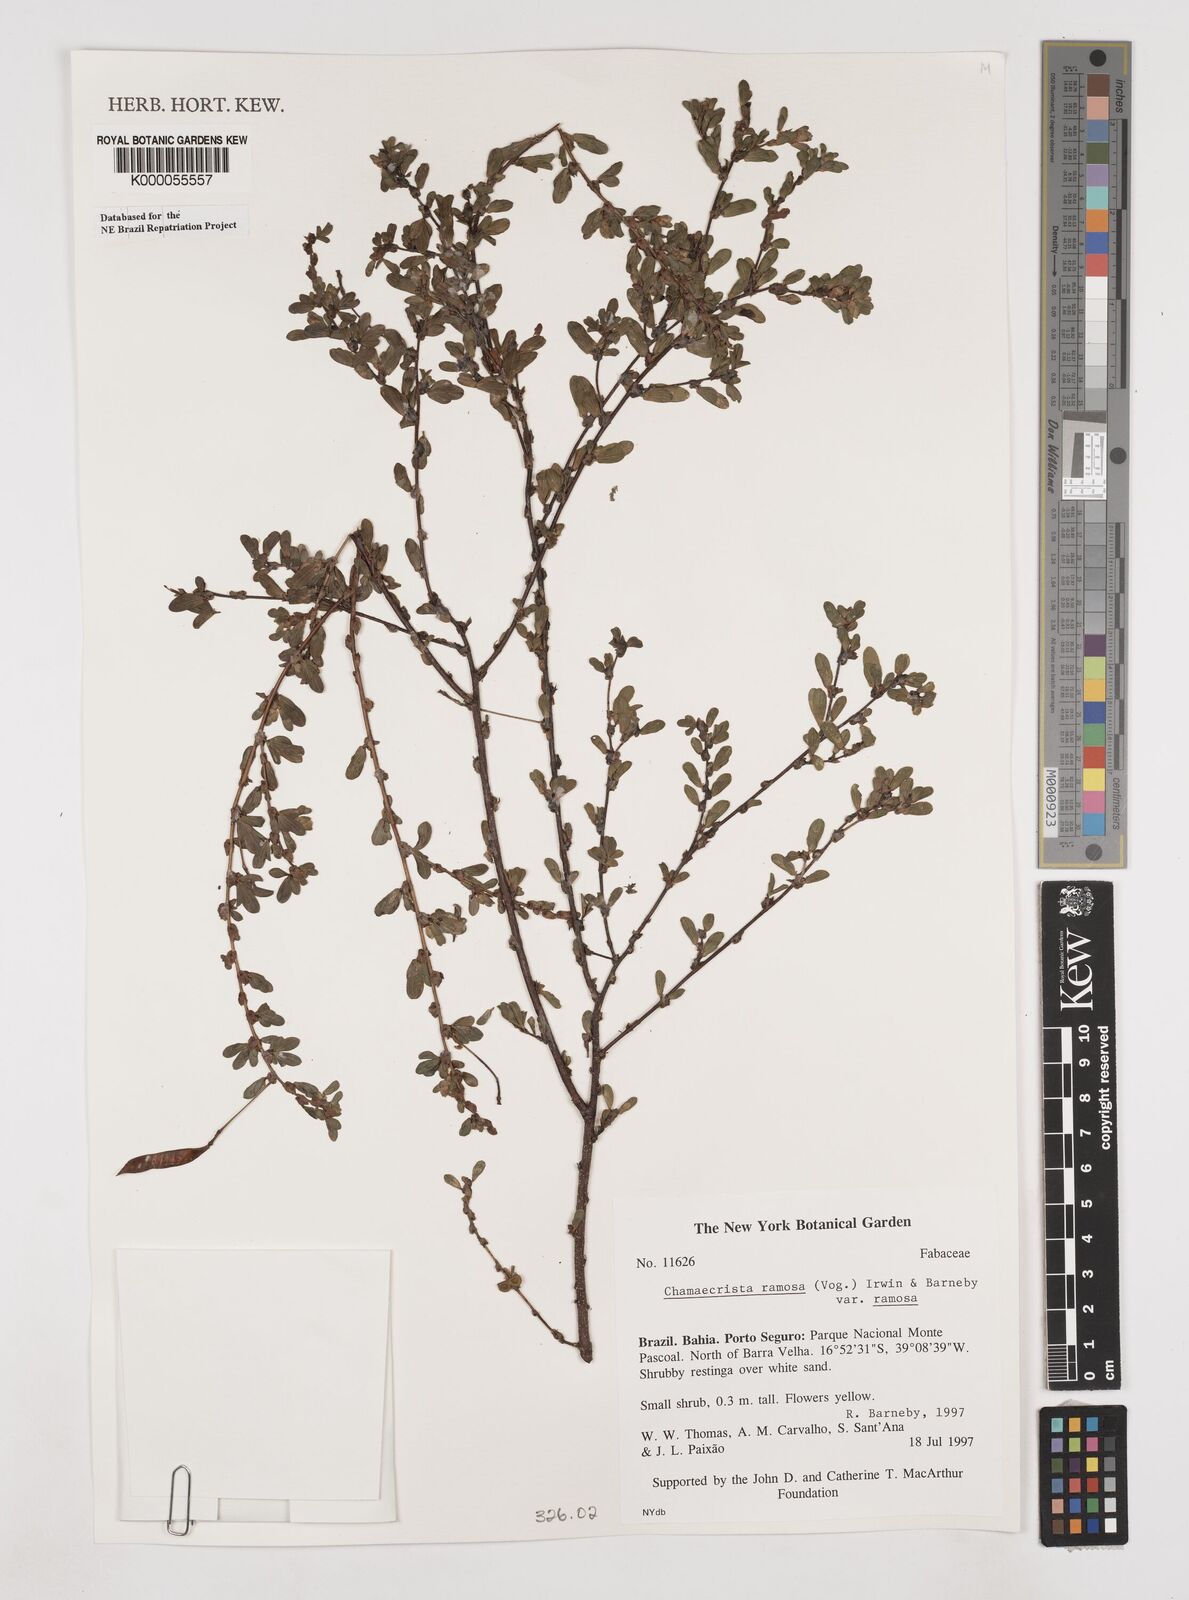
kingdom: Plantae
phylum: Tracheophyta
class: Magnoliopsida
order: Fabales
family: Fabaceae
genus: Chamaecrista
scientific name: Chamaecrista ramosa
